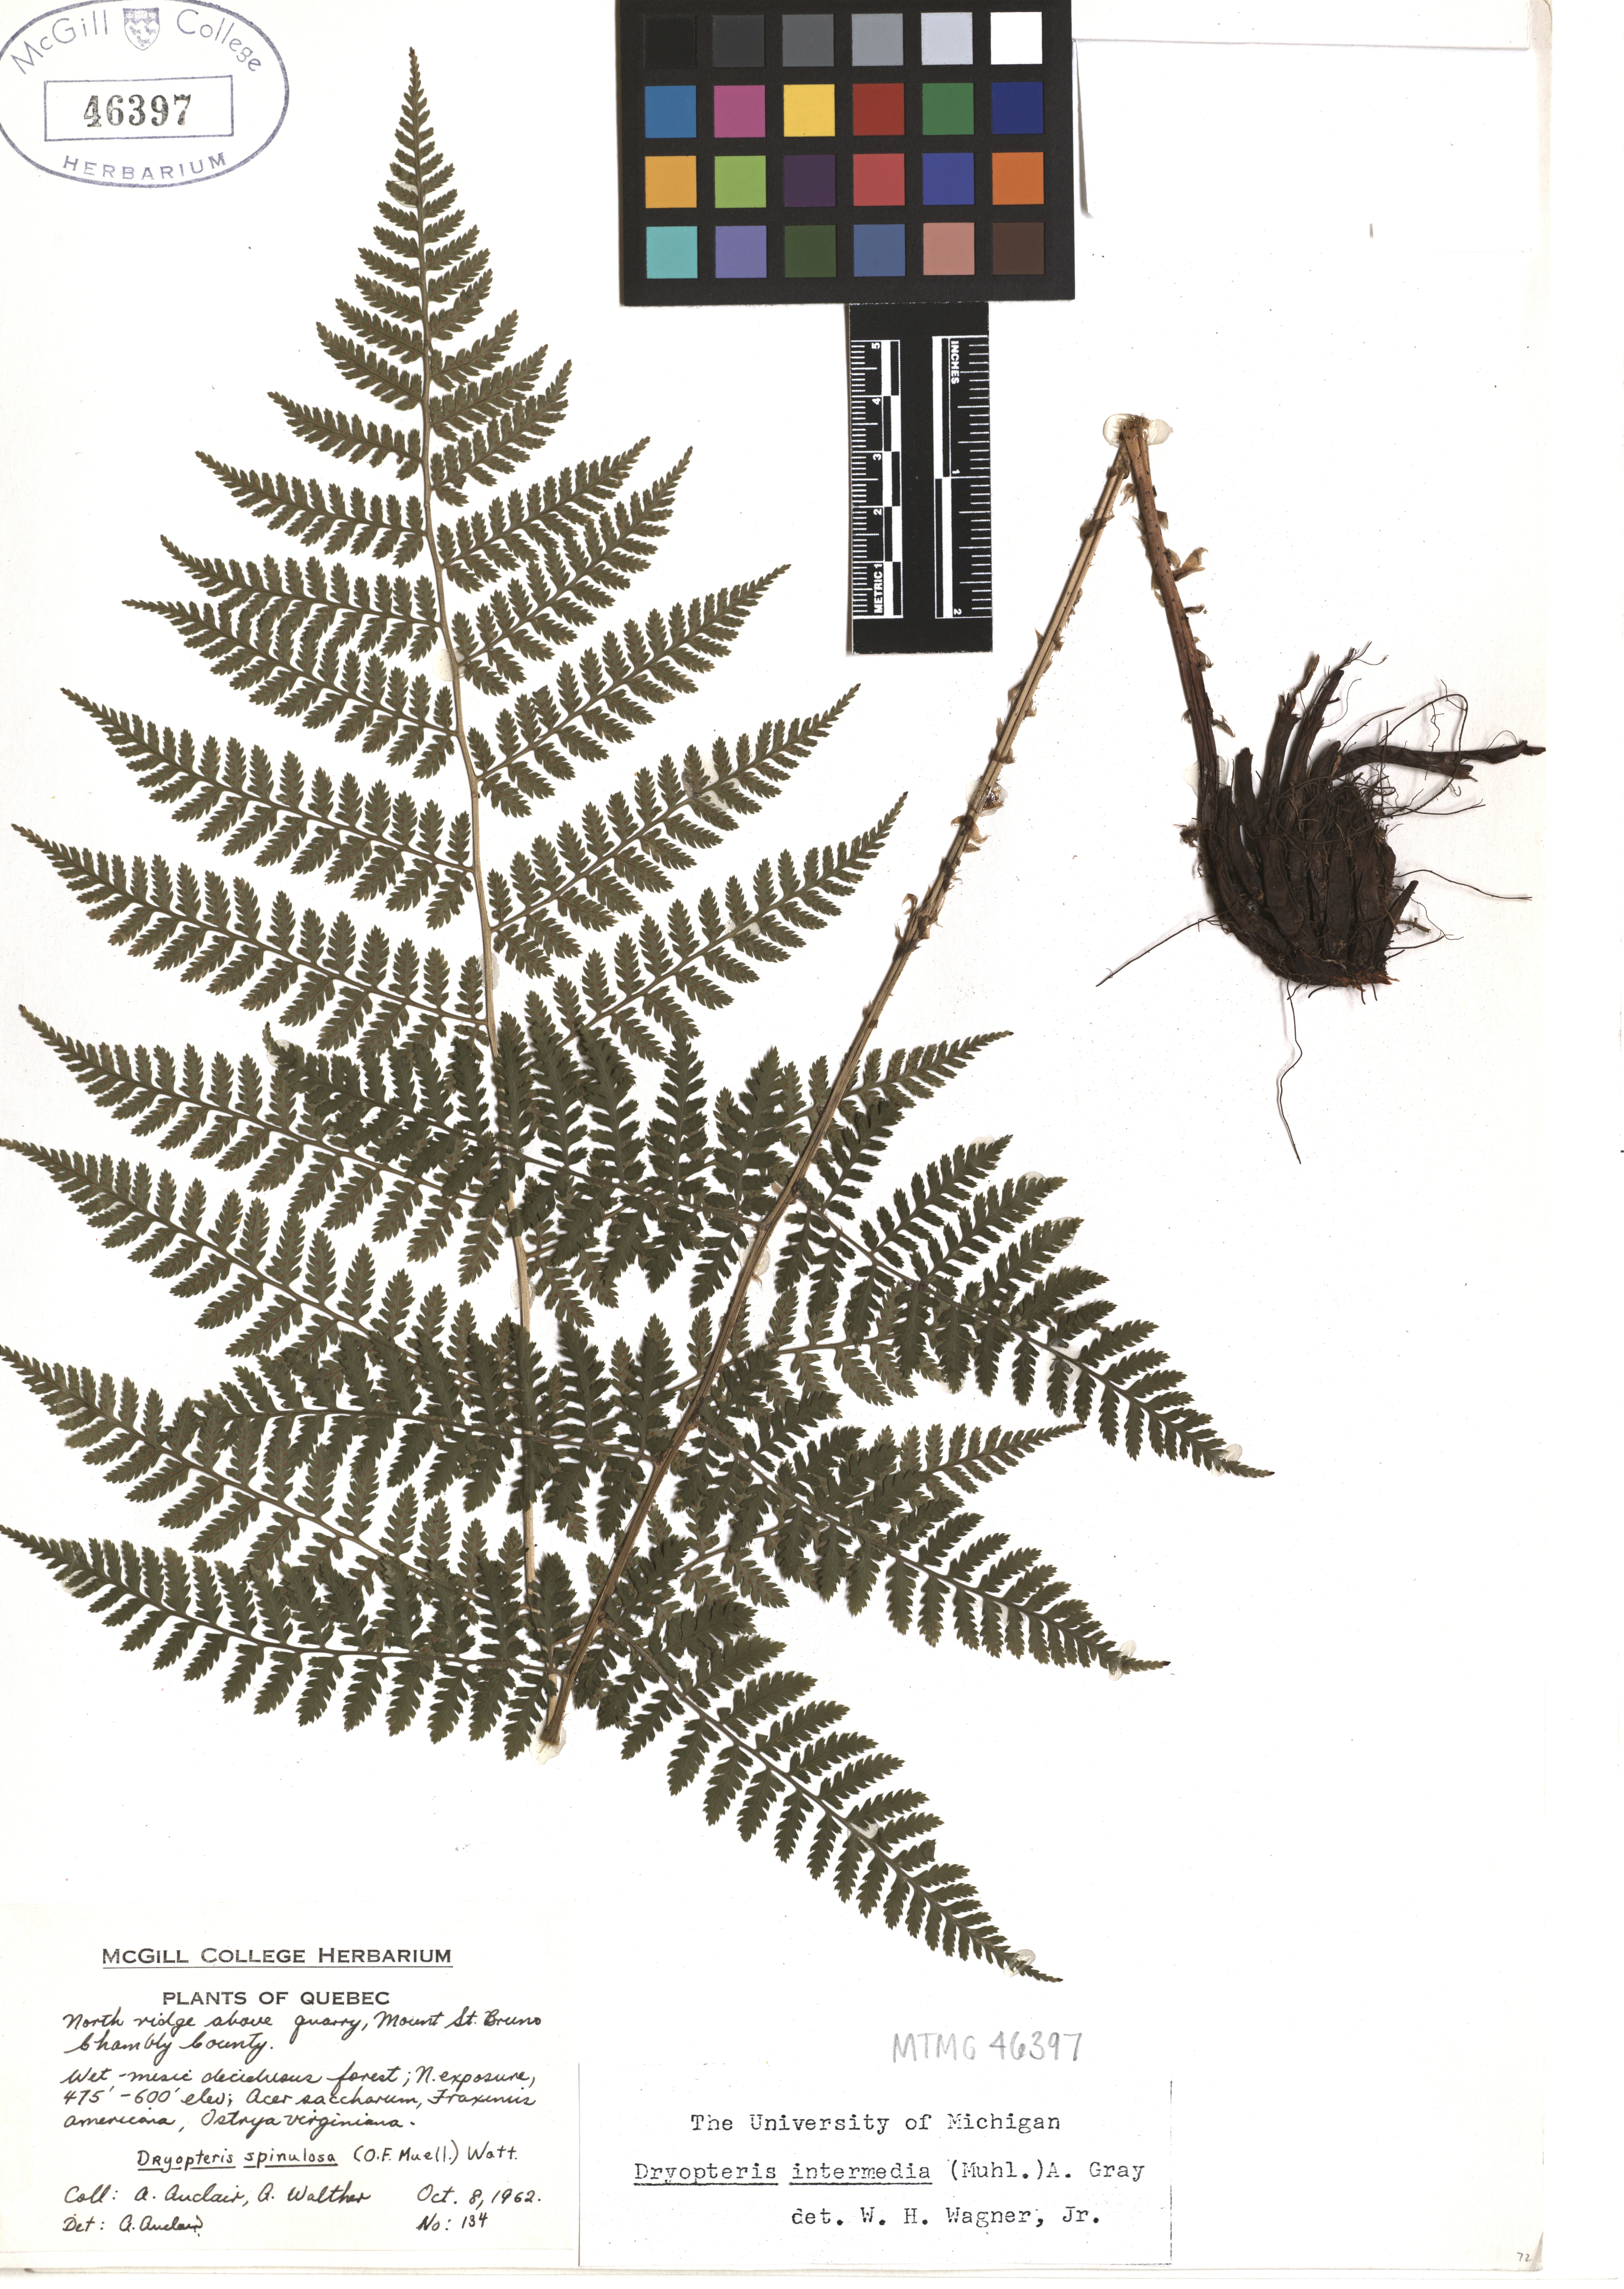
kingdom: Plantae
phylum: Tracheophyta
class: Polypodiopsida
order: Polypodiales
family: Dryopteridaceae
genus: Dryopteris
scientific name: Dryopteris intermedia
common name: Evergreen wood fern
